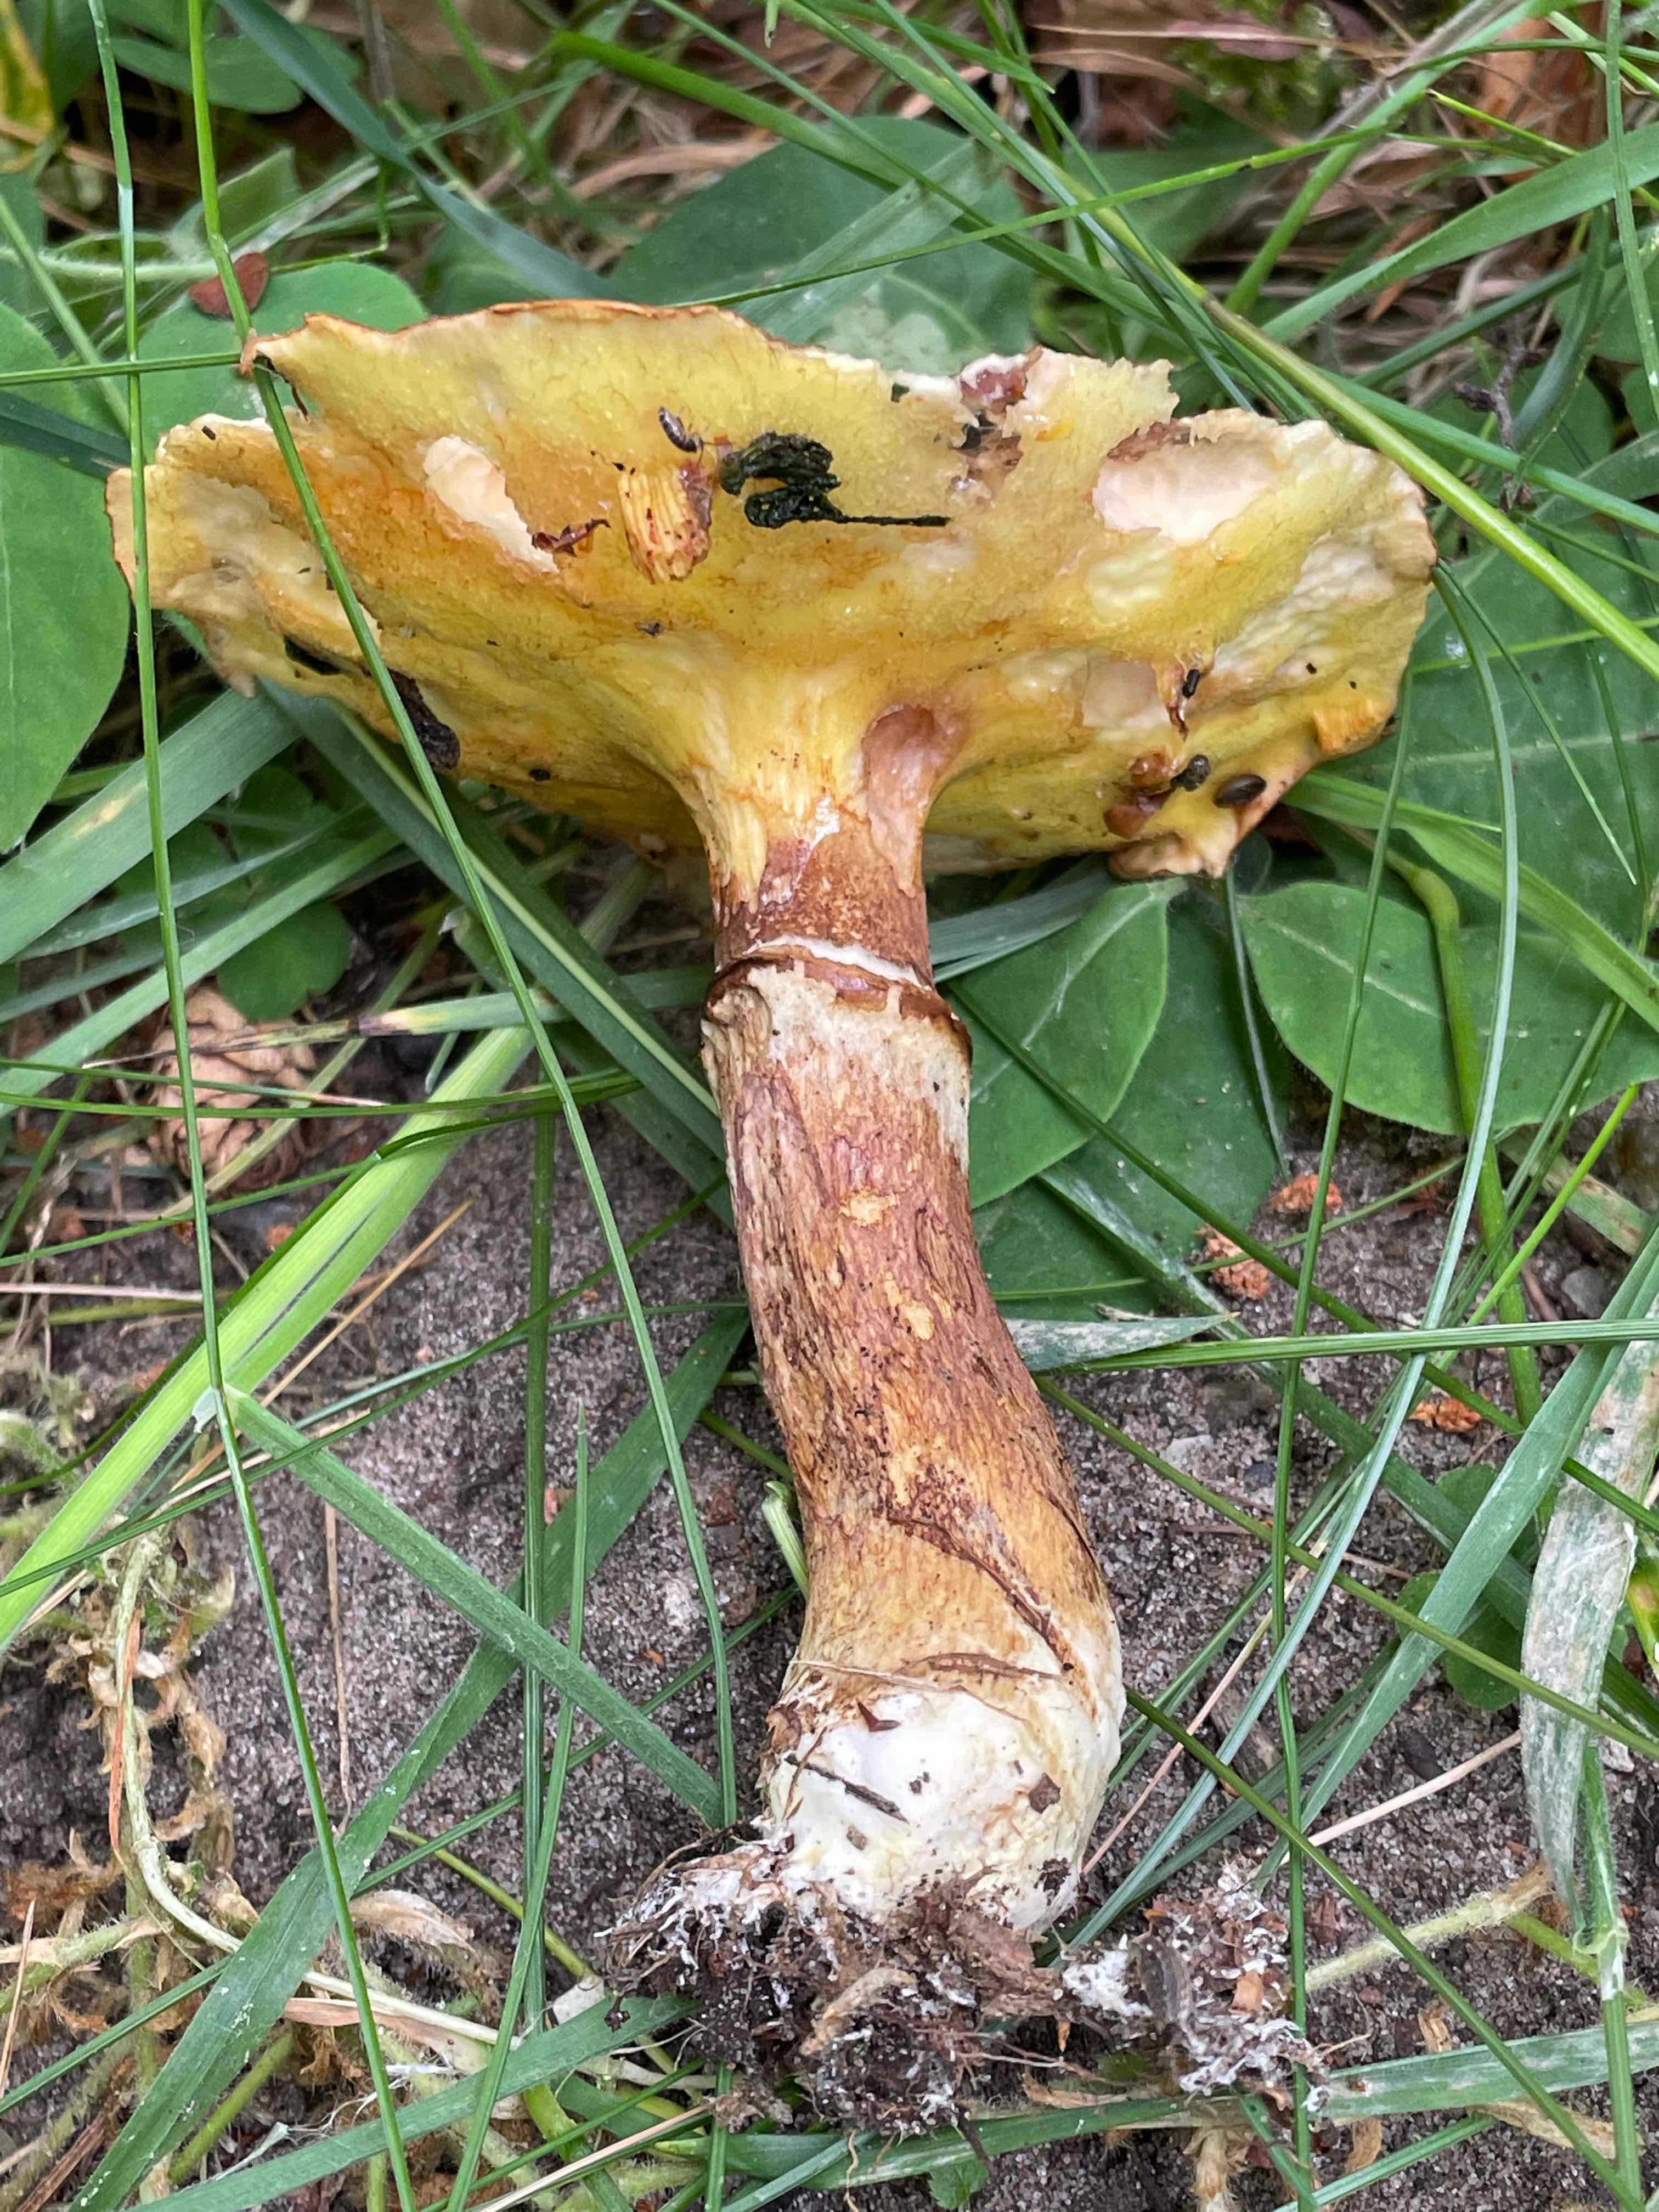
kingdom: Fungi
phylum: Basidiomycota
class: Agaricomycetes
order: Boletales
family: Suillaceae
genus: Suillus
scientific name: Suillus grevillei
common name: lærke-slimrørhat
